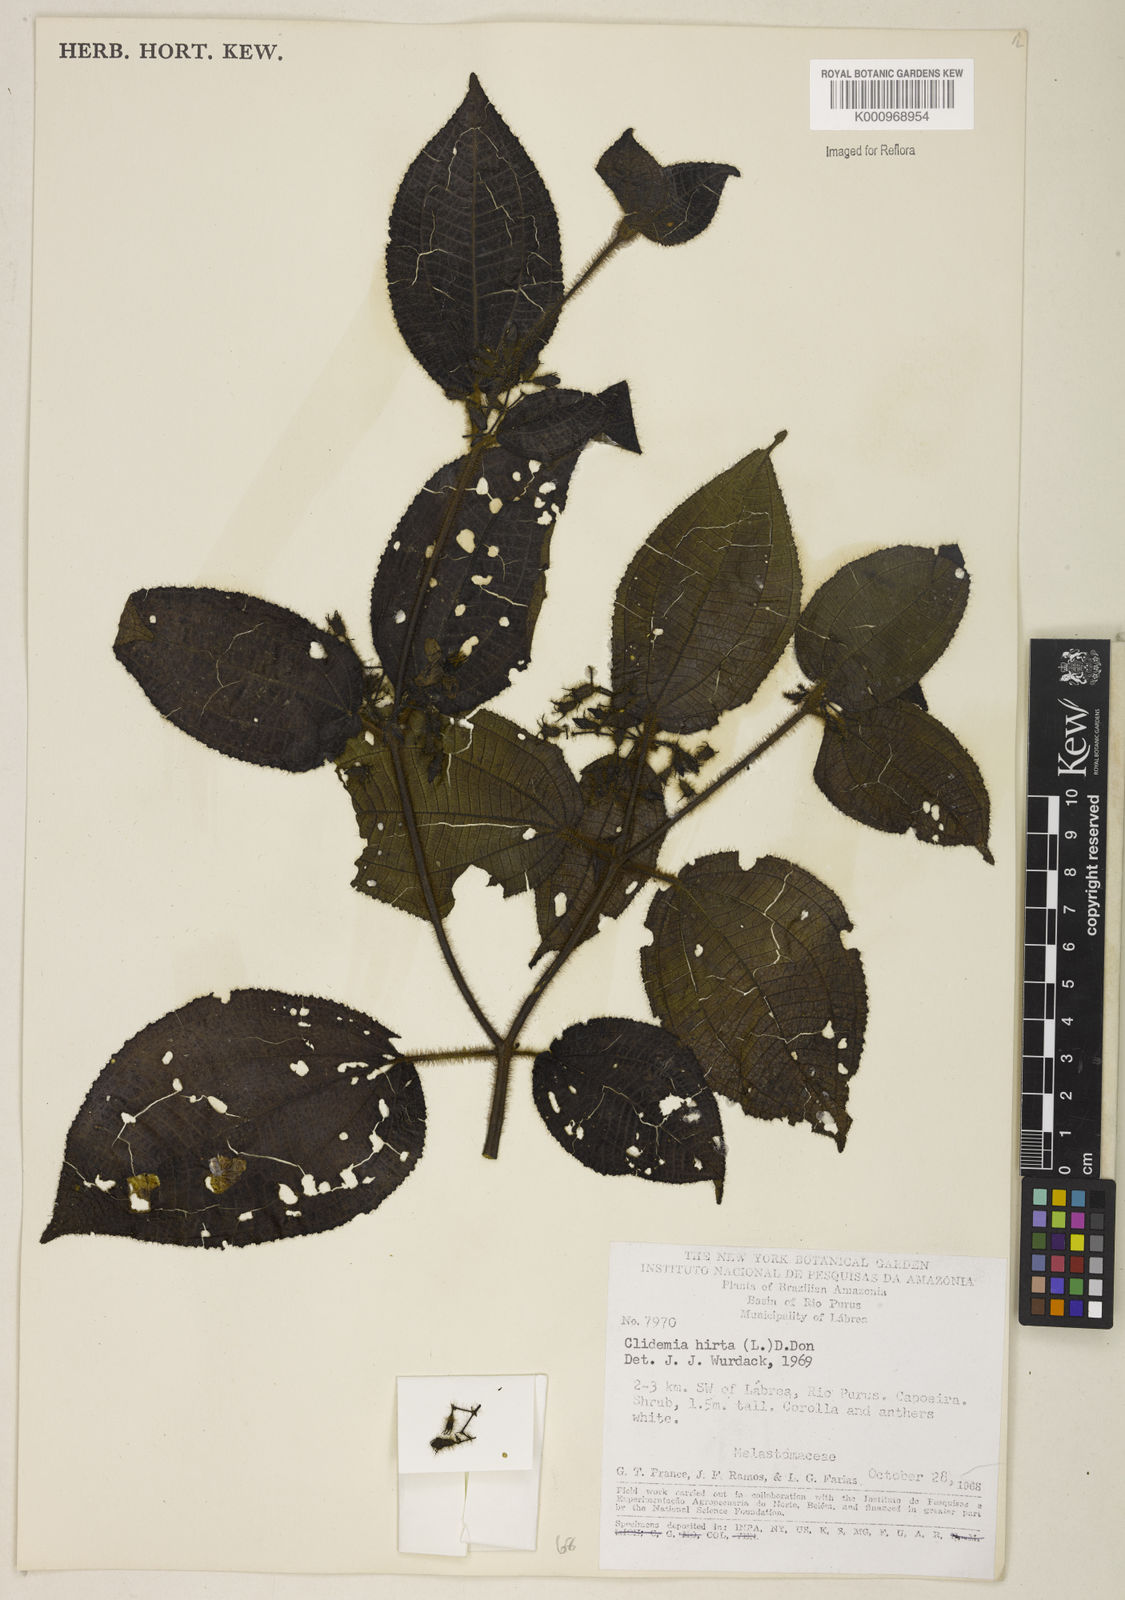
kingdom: Plantae
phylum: Tracheophyta
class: Magnoliopsida
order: Myrtales
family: Melastomataceae
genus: Miconia
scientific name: Miconia crenata
